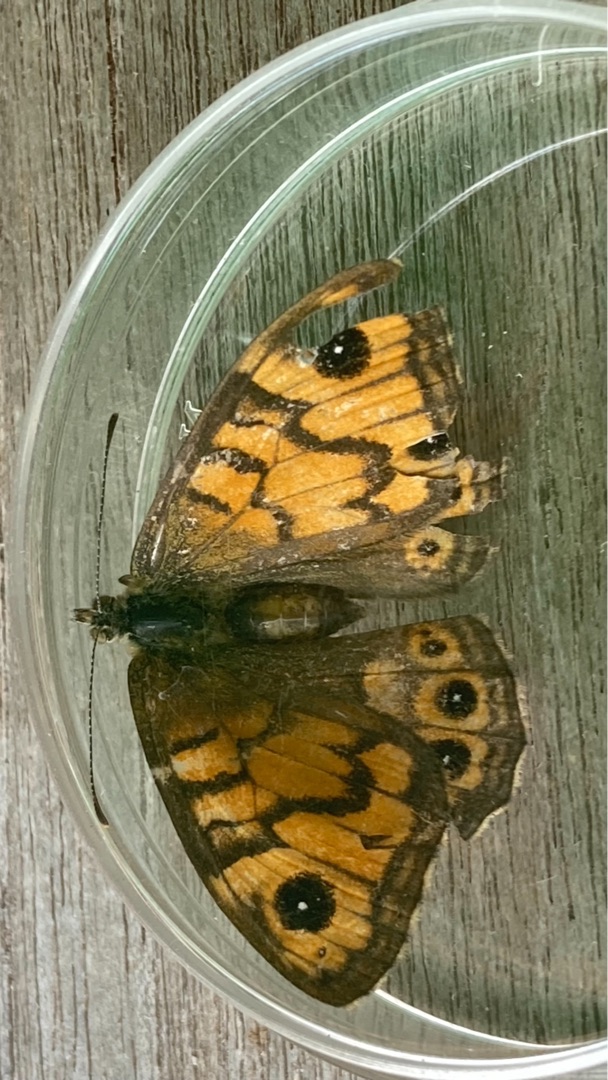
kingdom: Animalia
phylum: Arthropoda
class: Insecta
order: Lepidoptera
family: Nymphalidae
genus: Pararge
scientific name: Pararge Lasiommata megera
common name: Vejrandøje
